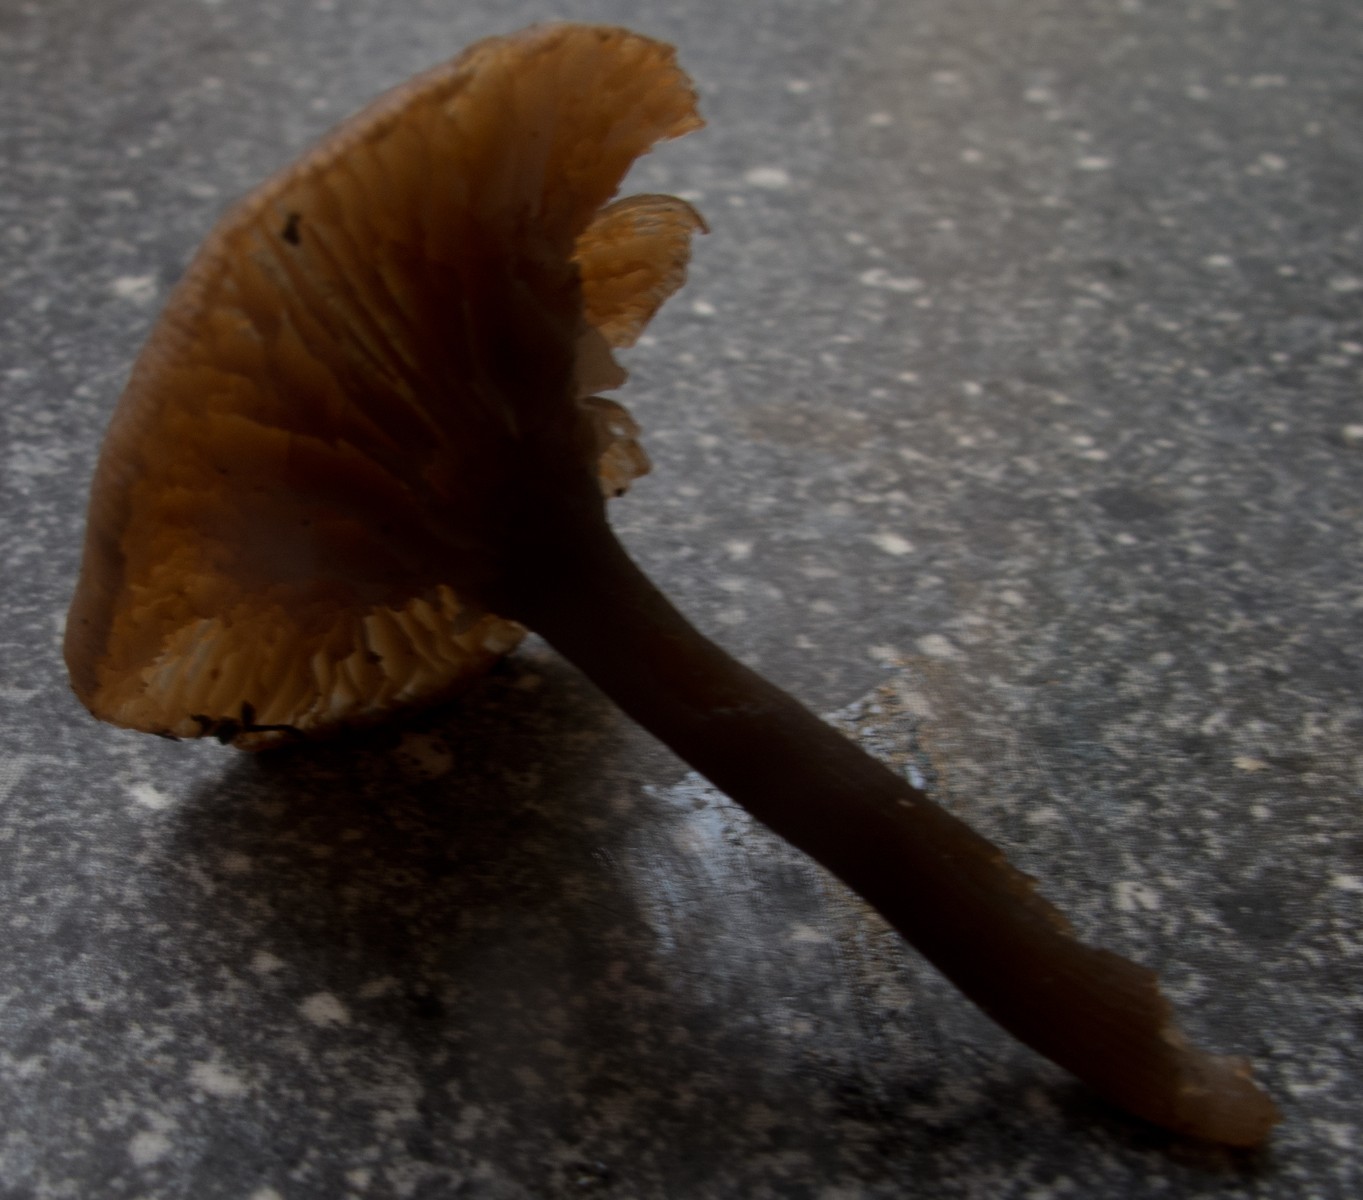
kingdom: Fungi
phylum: Basidiomycota
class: Agaricomycetes
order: Agaricales
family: Pseudoclitocybaceae
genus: Pseudoclitocybe
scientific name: Pseudoclitocybe cyathiformis
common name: almindelig bægertragthat
